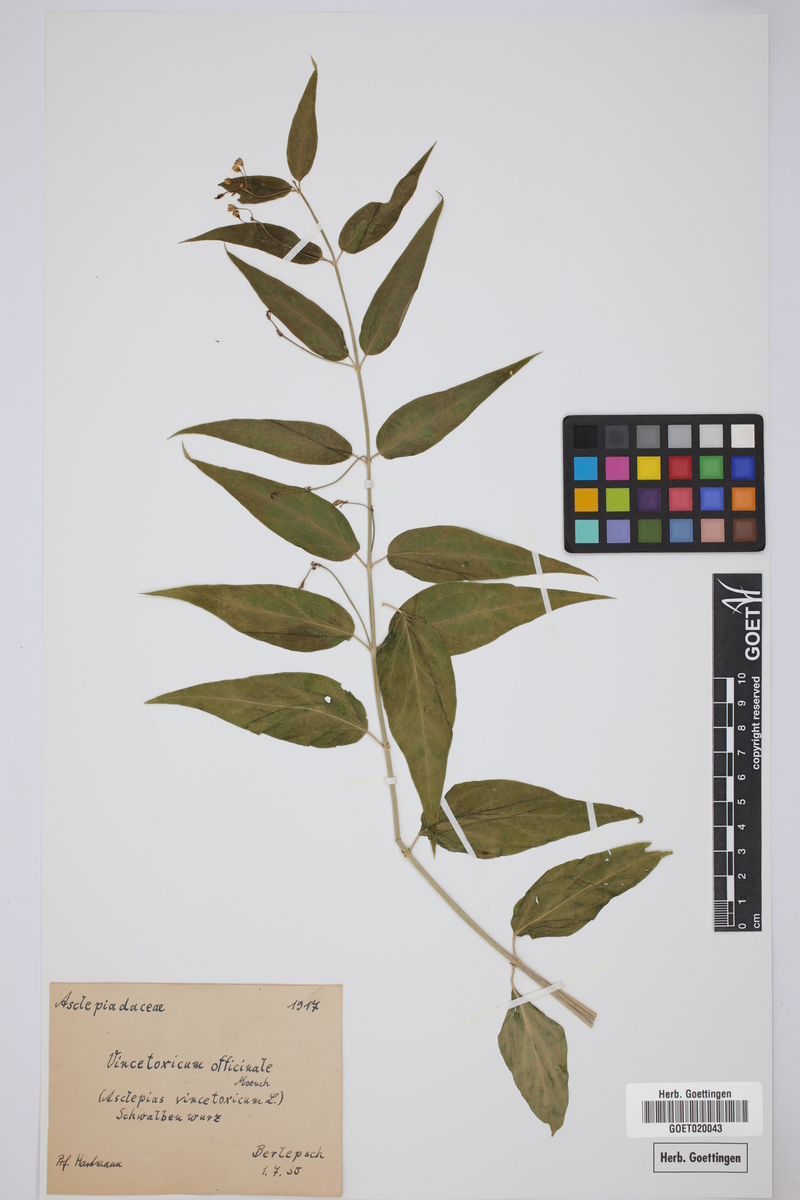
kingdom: Plantae
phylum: Tracheophyta
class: Magnoliopsida
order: Gentianales
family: Apocynaceae
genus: Vincetoxicum
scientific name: Vincetoxicum hirundinaria
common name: White swallowwort
